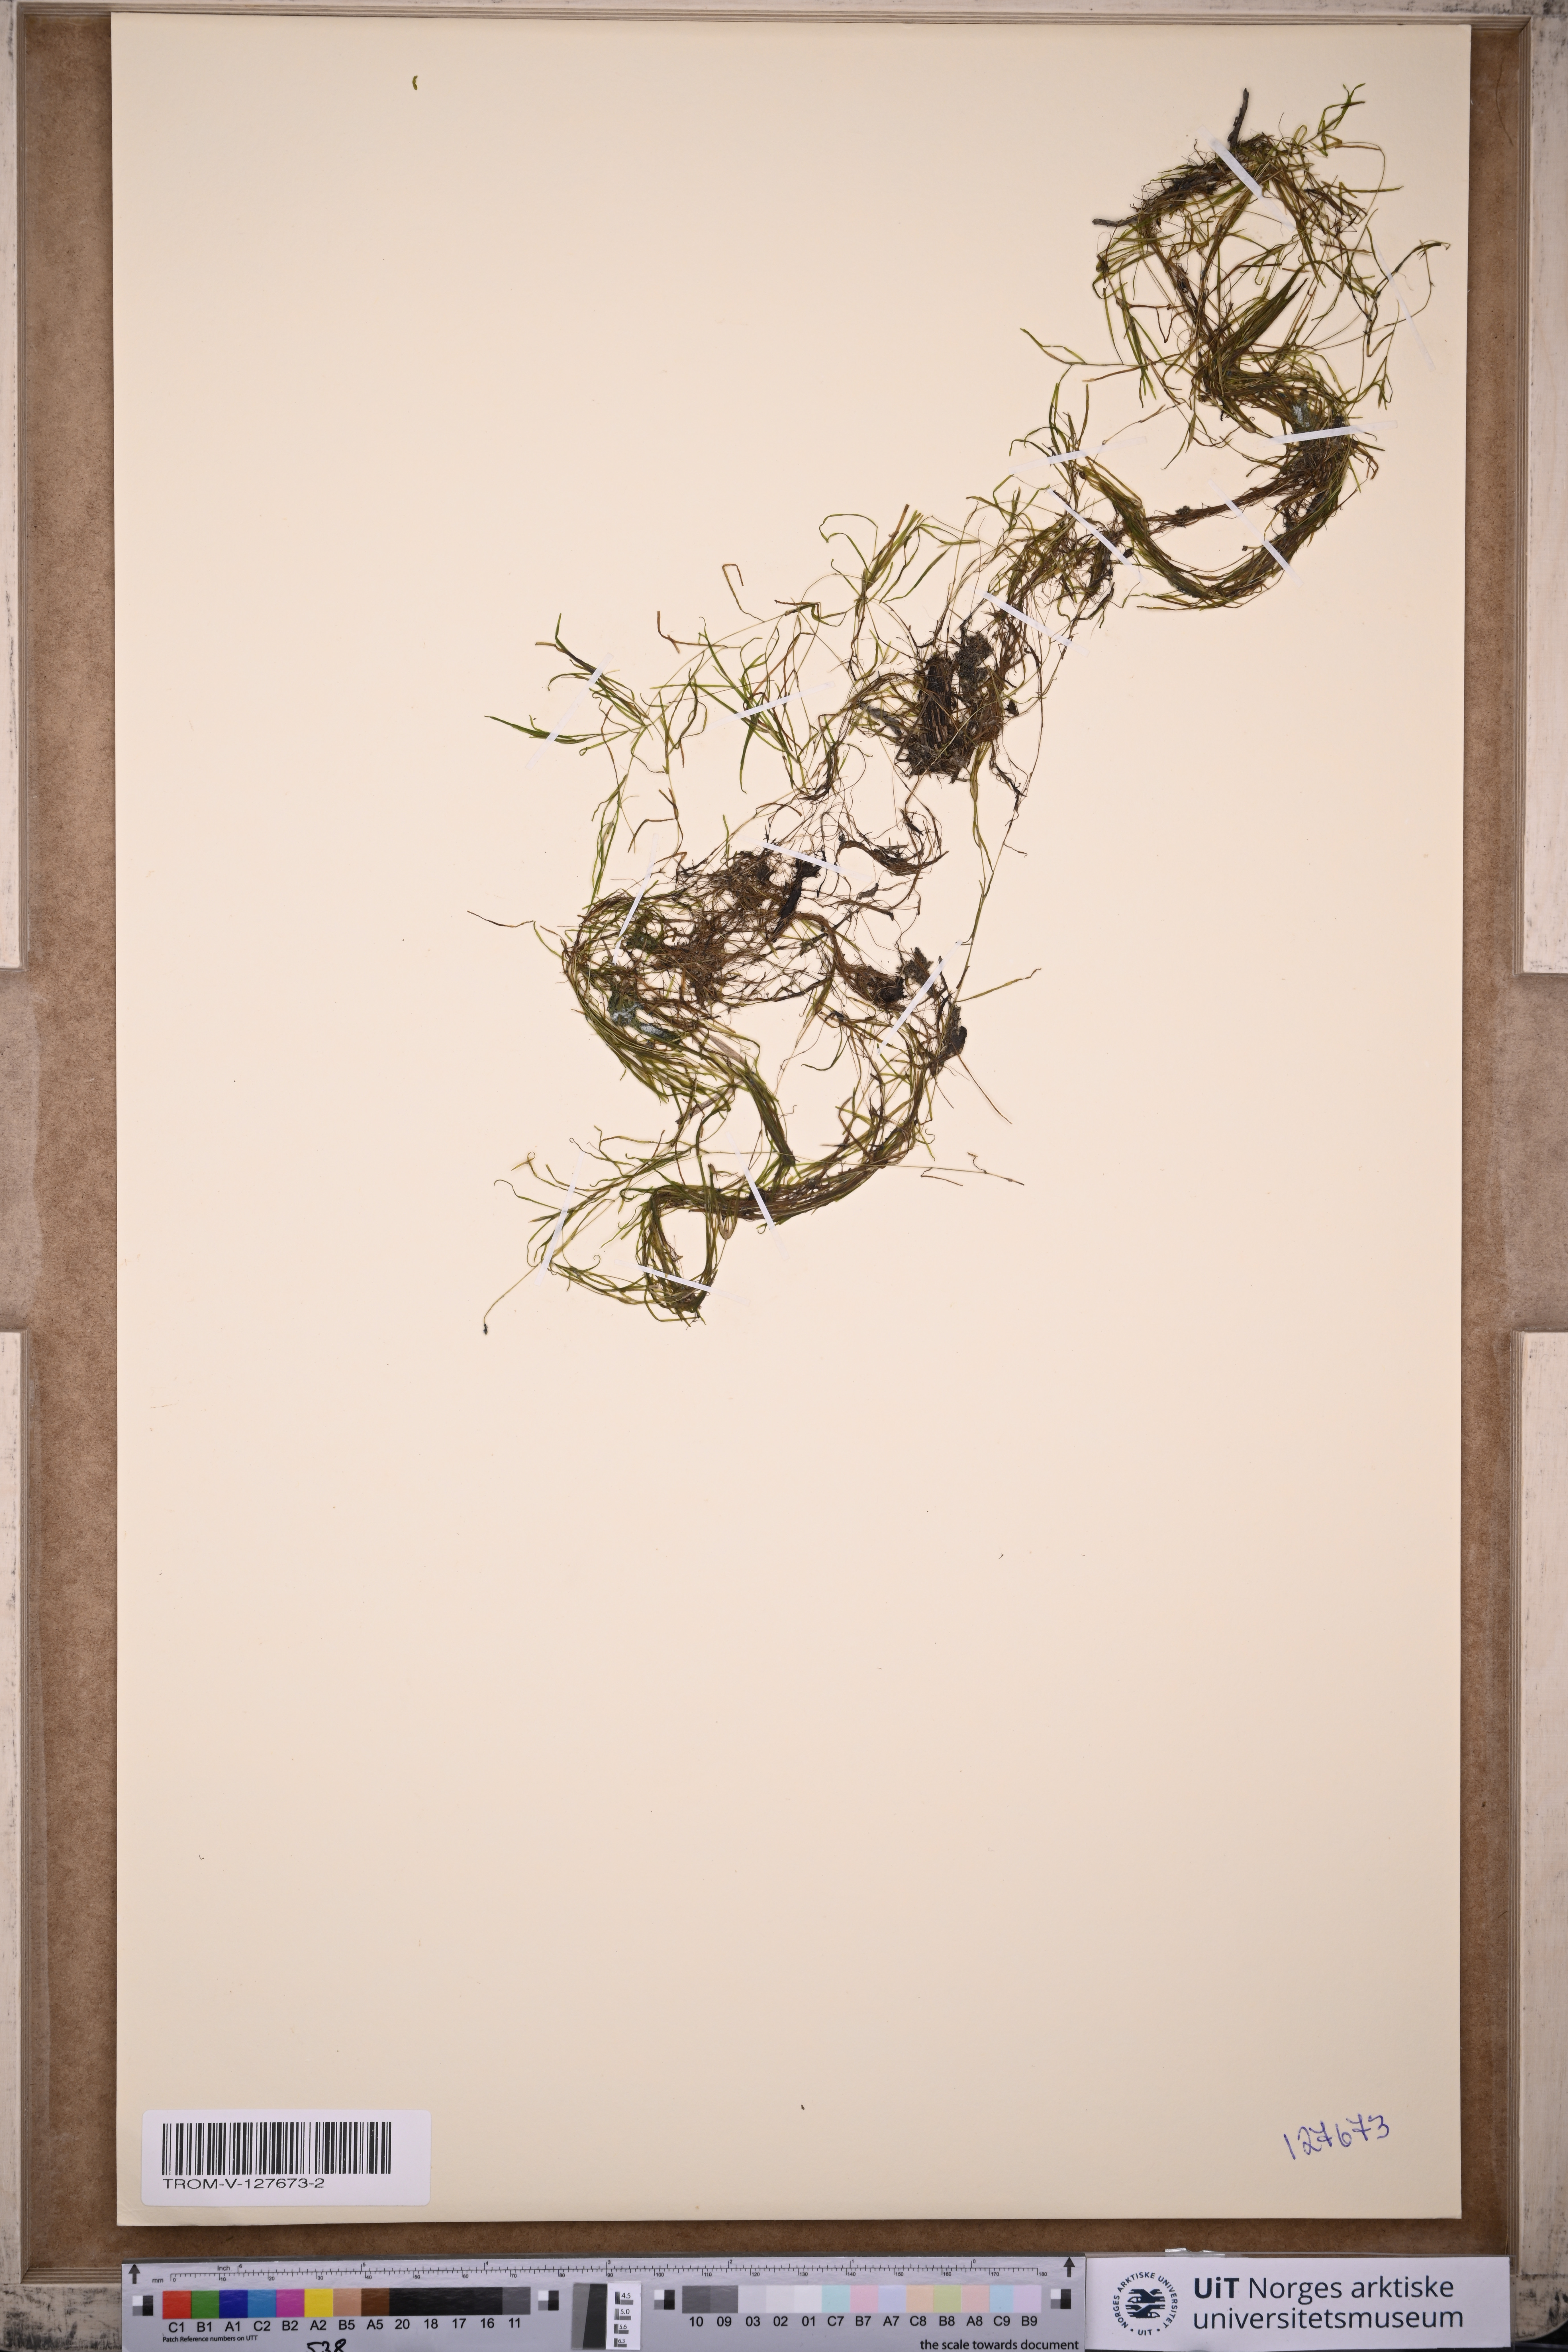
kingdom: Plantae
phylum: Tracheophyta
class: Liliopsida
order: Alismatales
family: Potamogetonaceae
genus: Potamogeton
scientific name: Potamogeton berchtoldii
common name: Small pondweed
